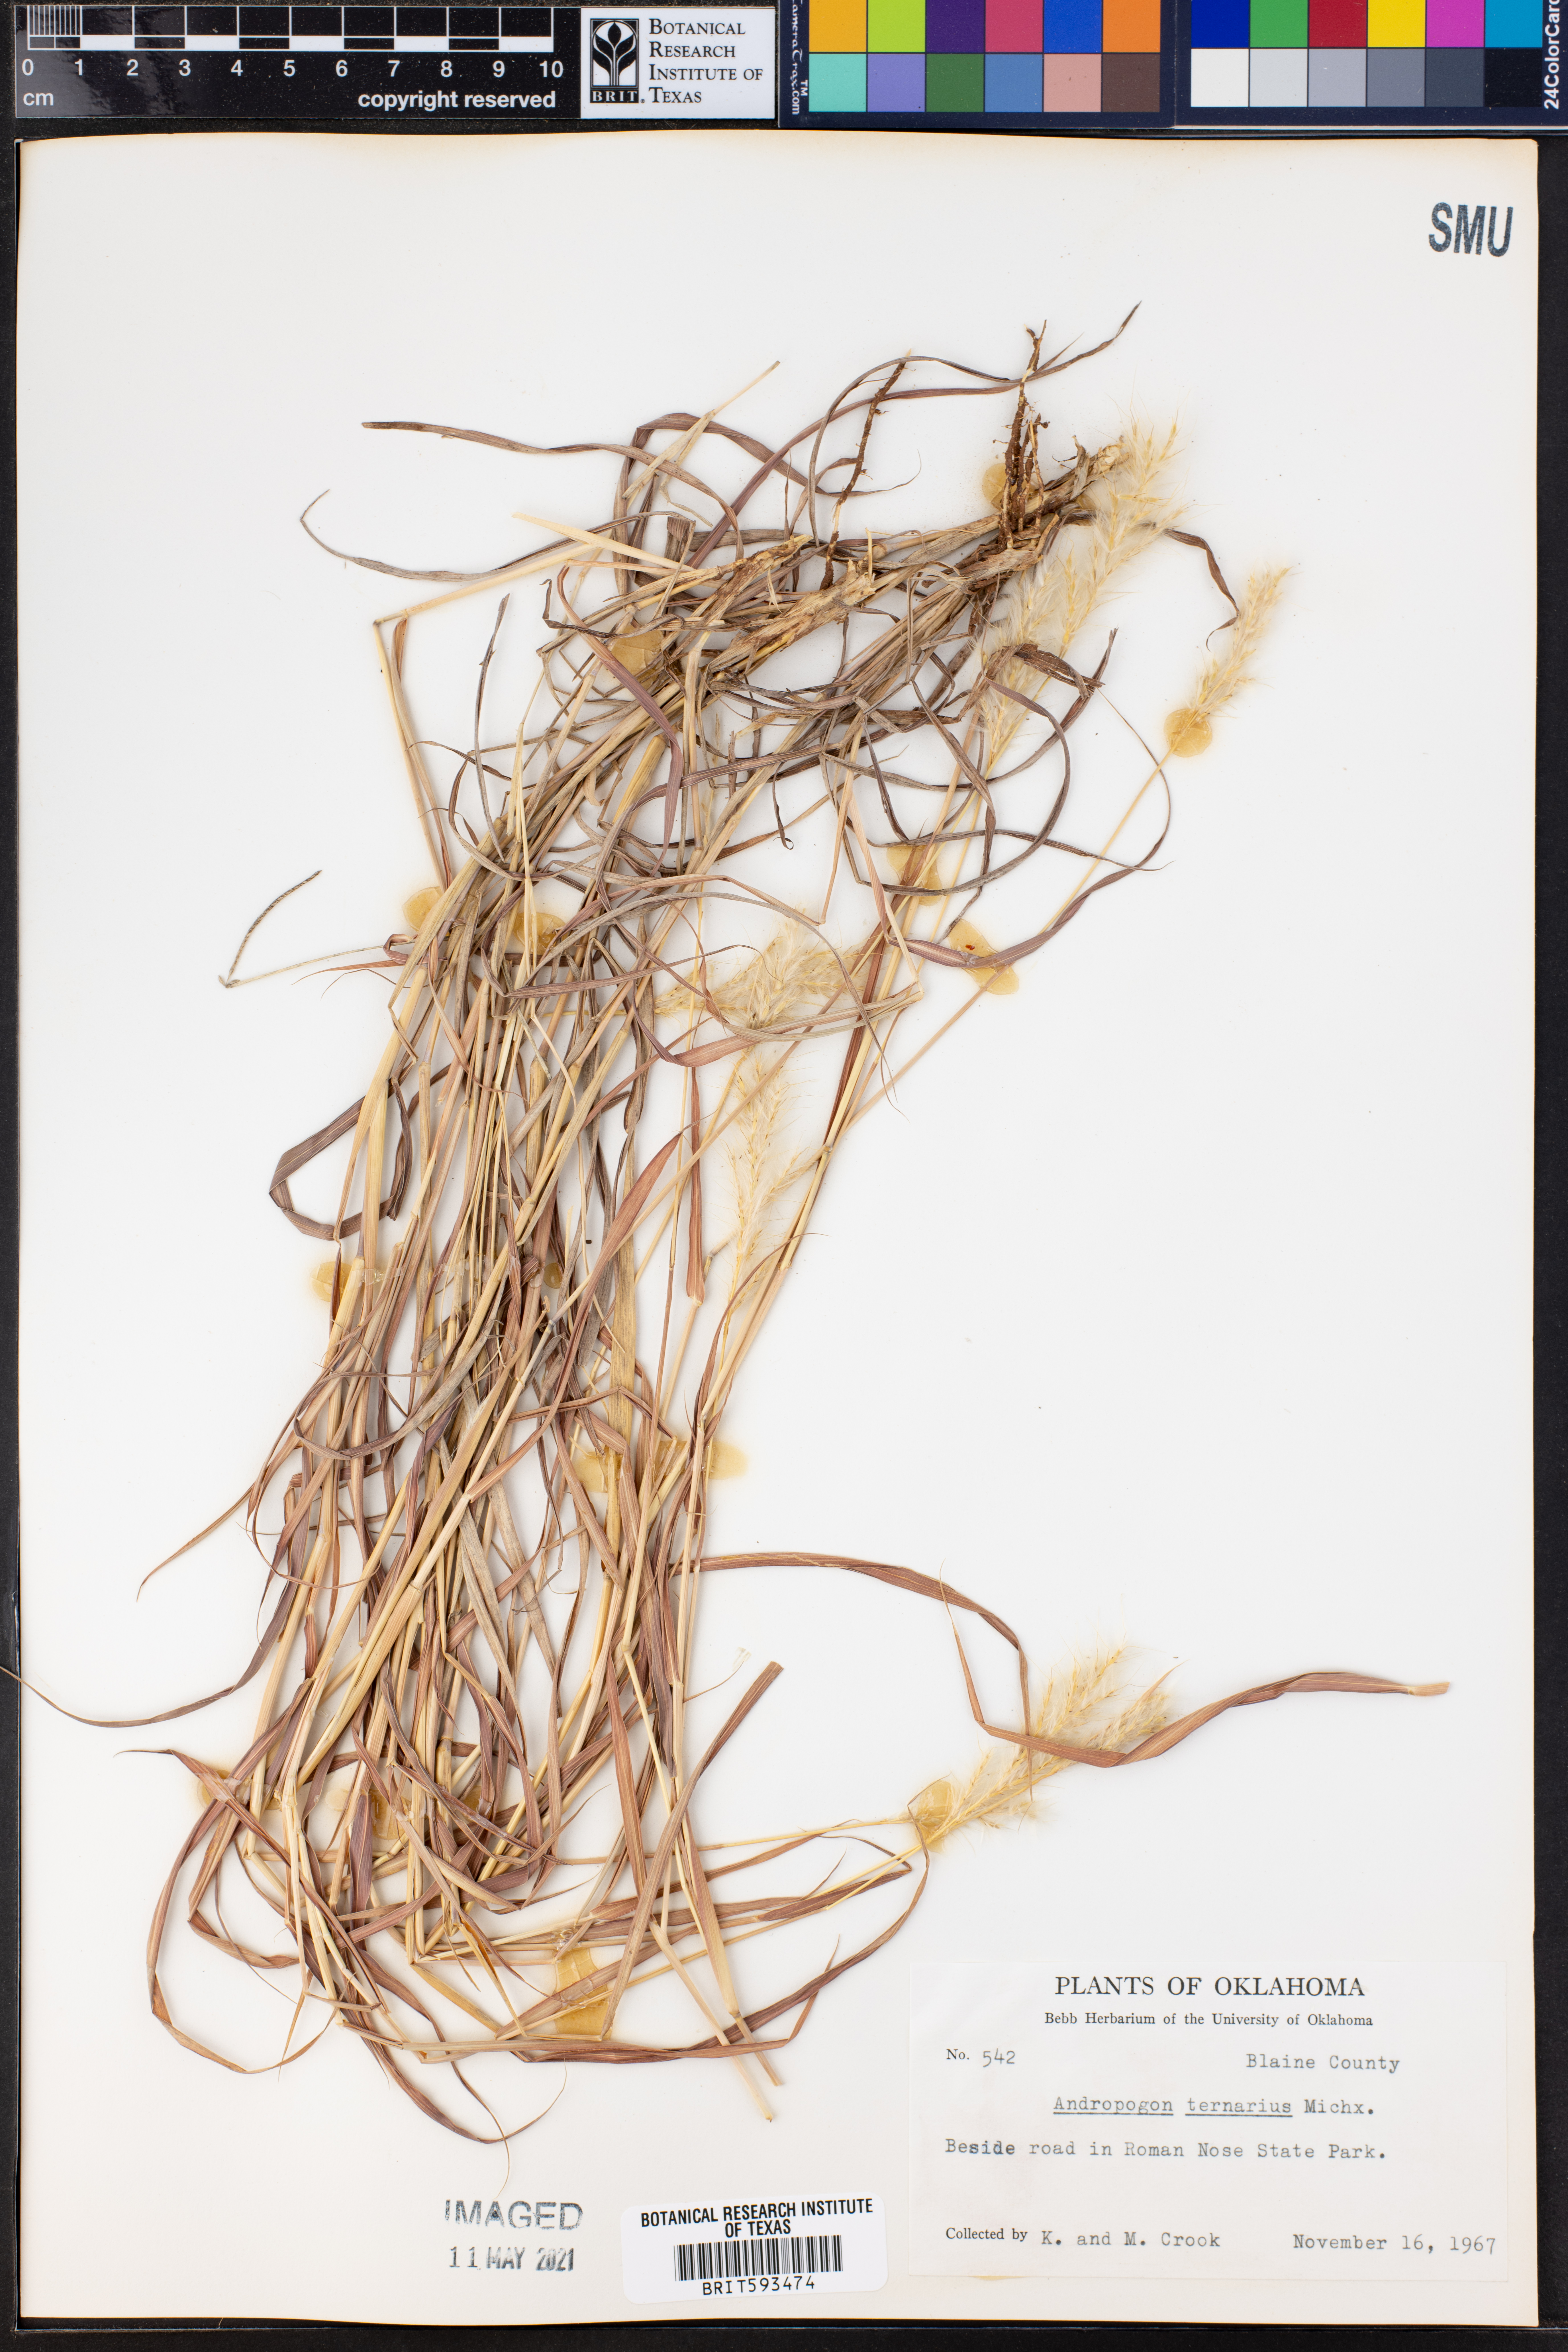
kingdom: Plantae
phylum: Tracheophyta
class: Liliopsida
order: Poales
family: Poaceae
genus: Andropogon
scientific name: Andropogon ternarius
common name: Split bluestem
